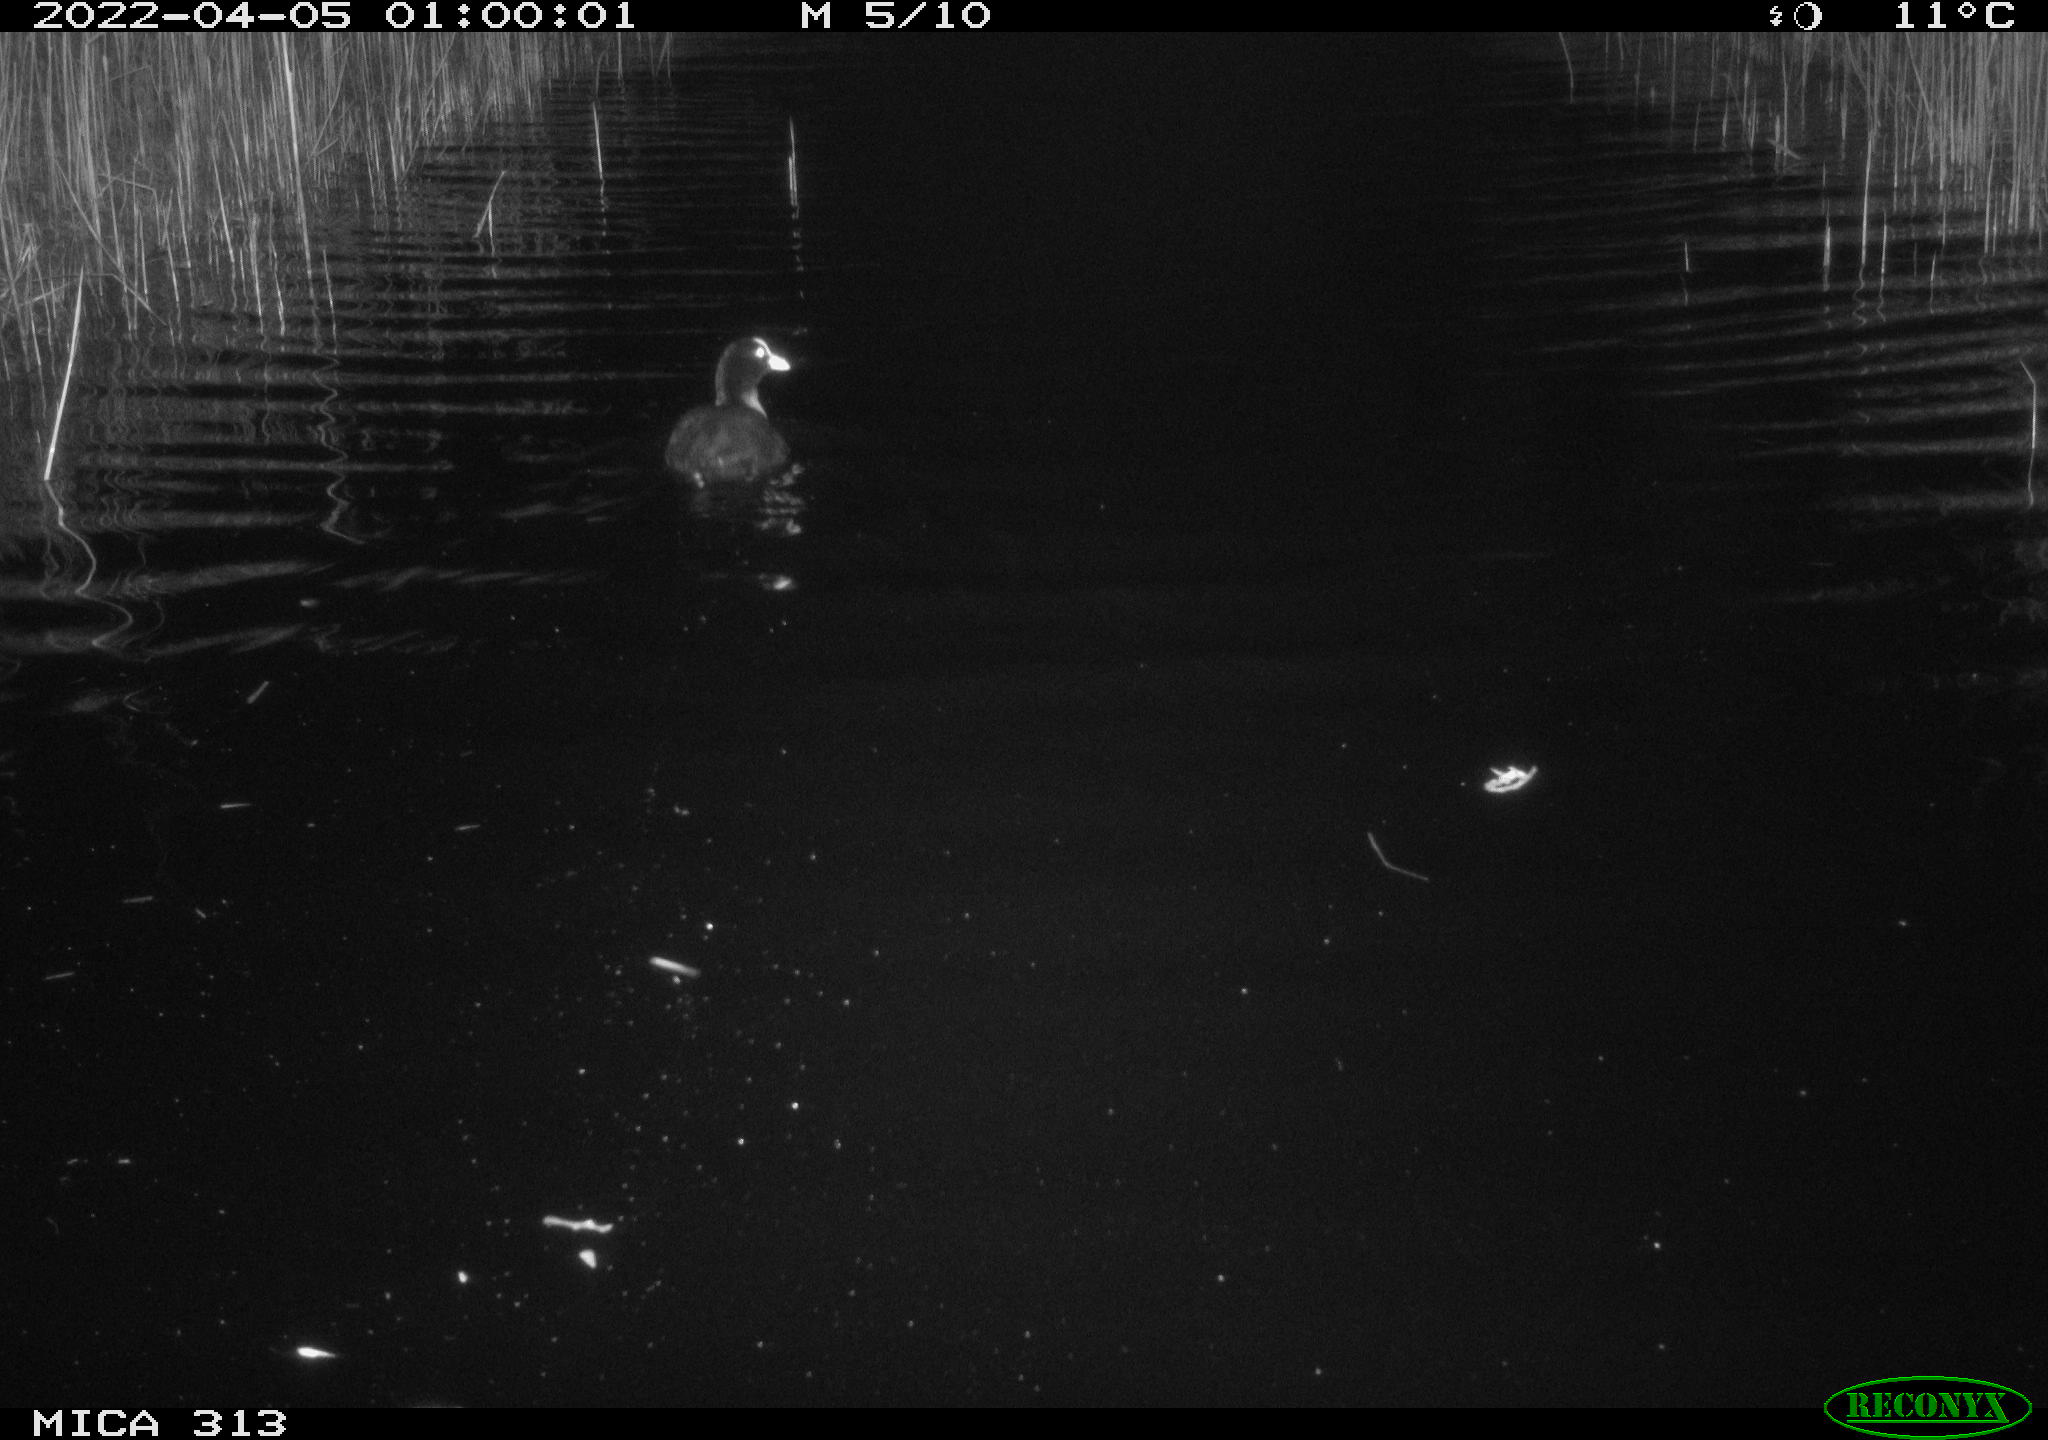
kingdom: Animalia
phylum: Chordata
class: Aves
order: Gruiformes
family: Rallidae
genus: Fulica
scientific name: Fulica atra
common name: Eurasian coot
